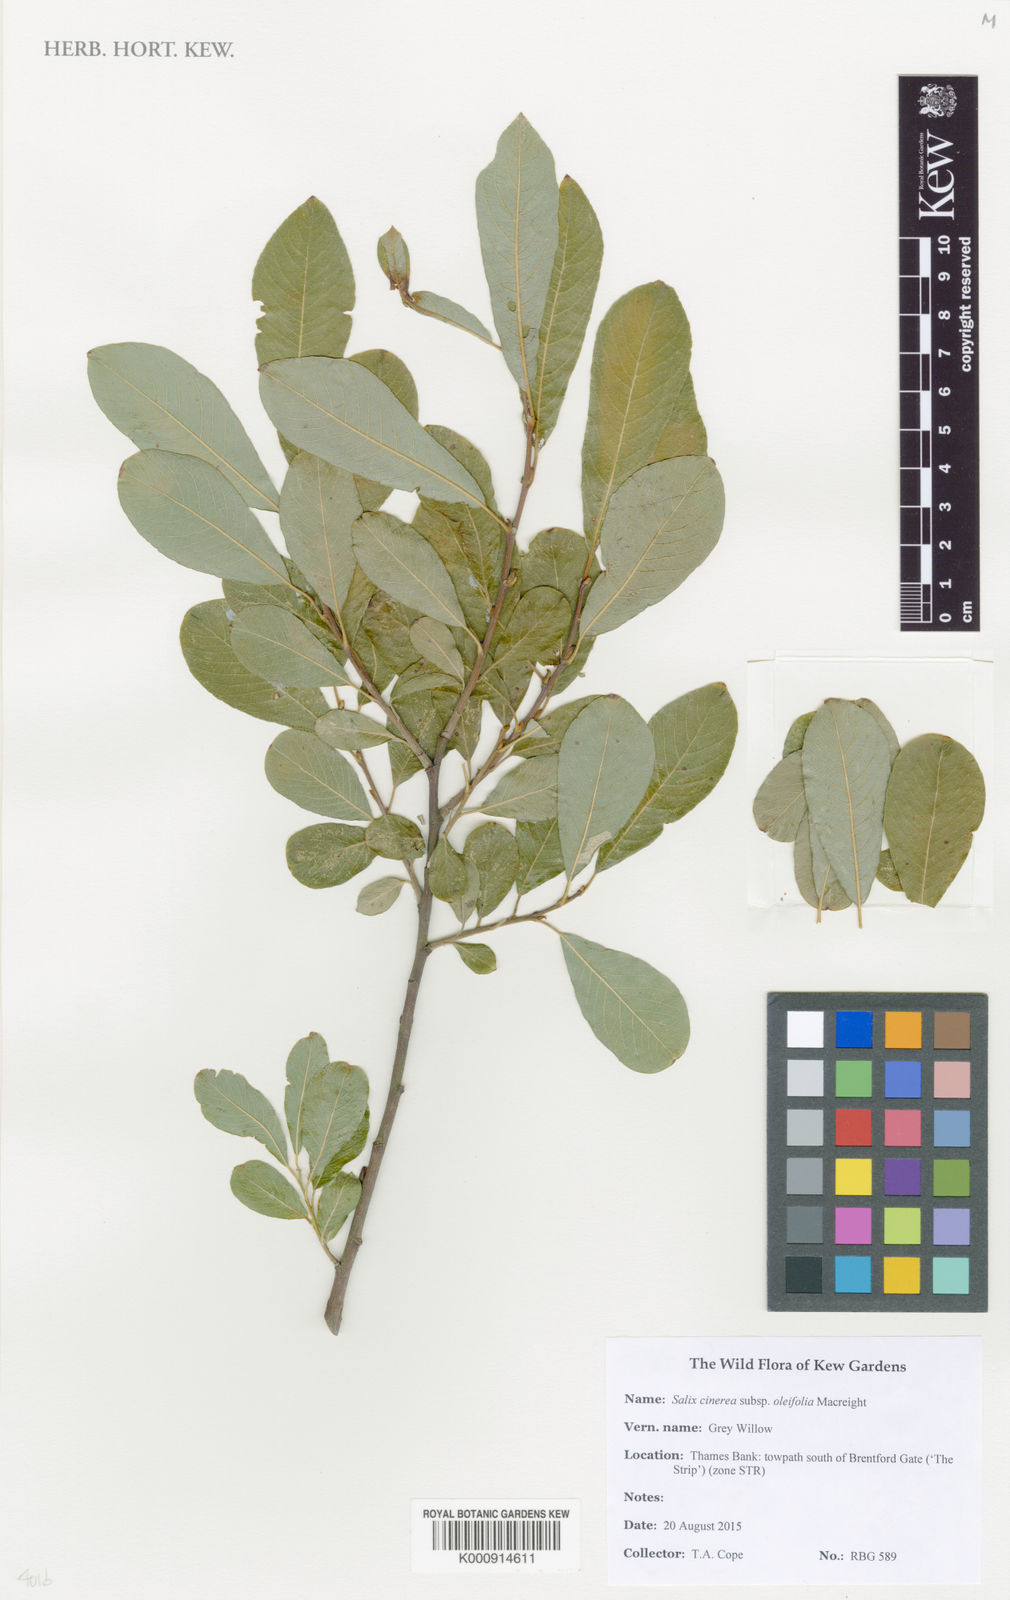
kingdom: Plantae
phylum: Tracheophyta
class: Magnoliopsida
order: Malpighiales
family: Salicaceae
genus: Salix
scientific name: Salix atrocinerea
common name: Rusty willow
